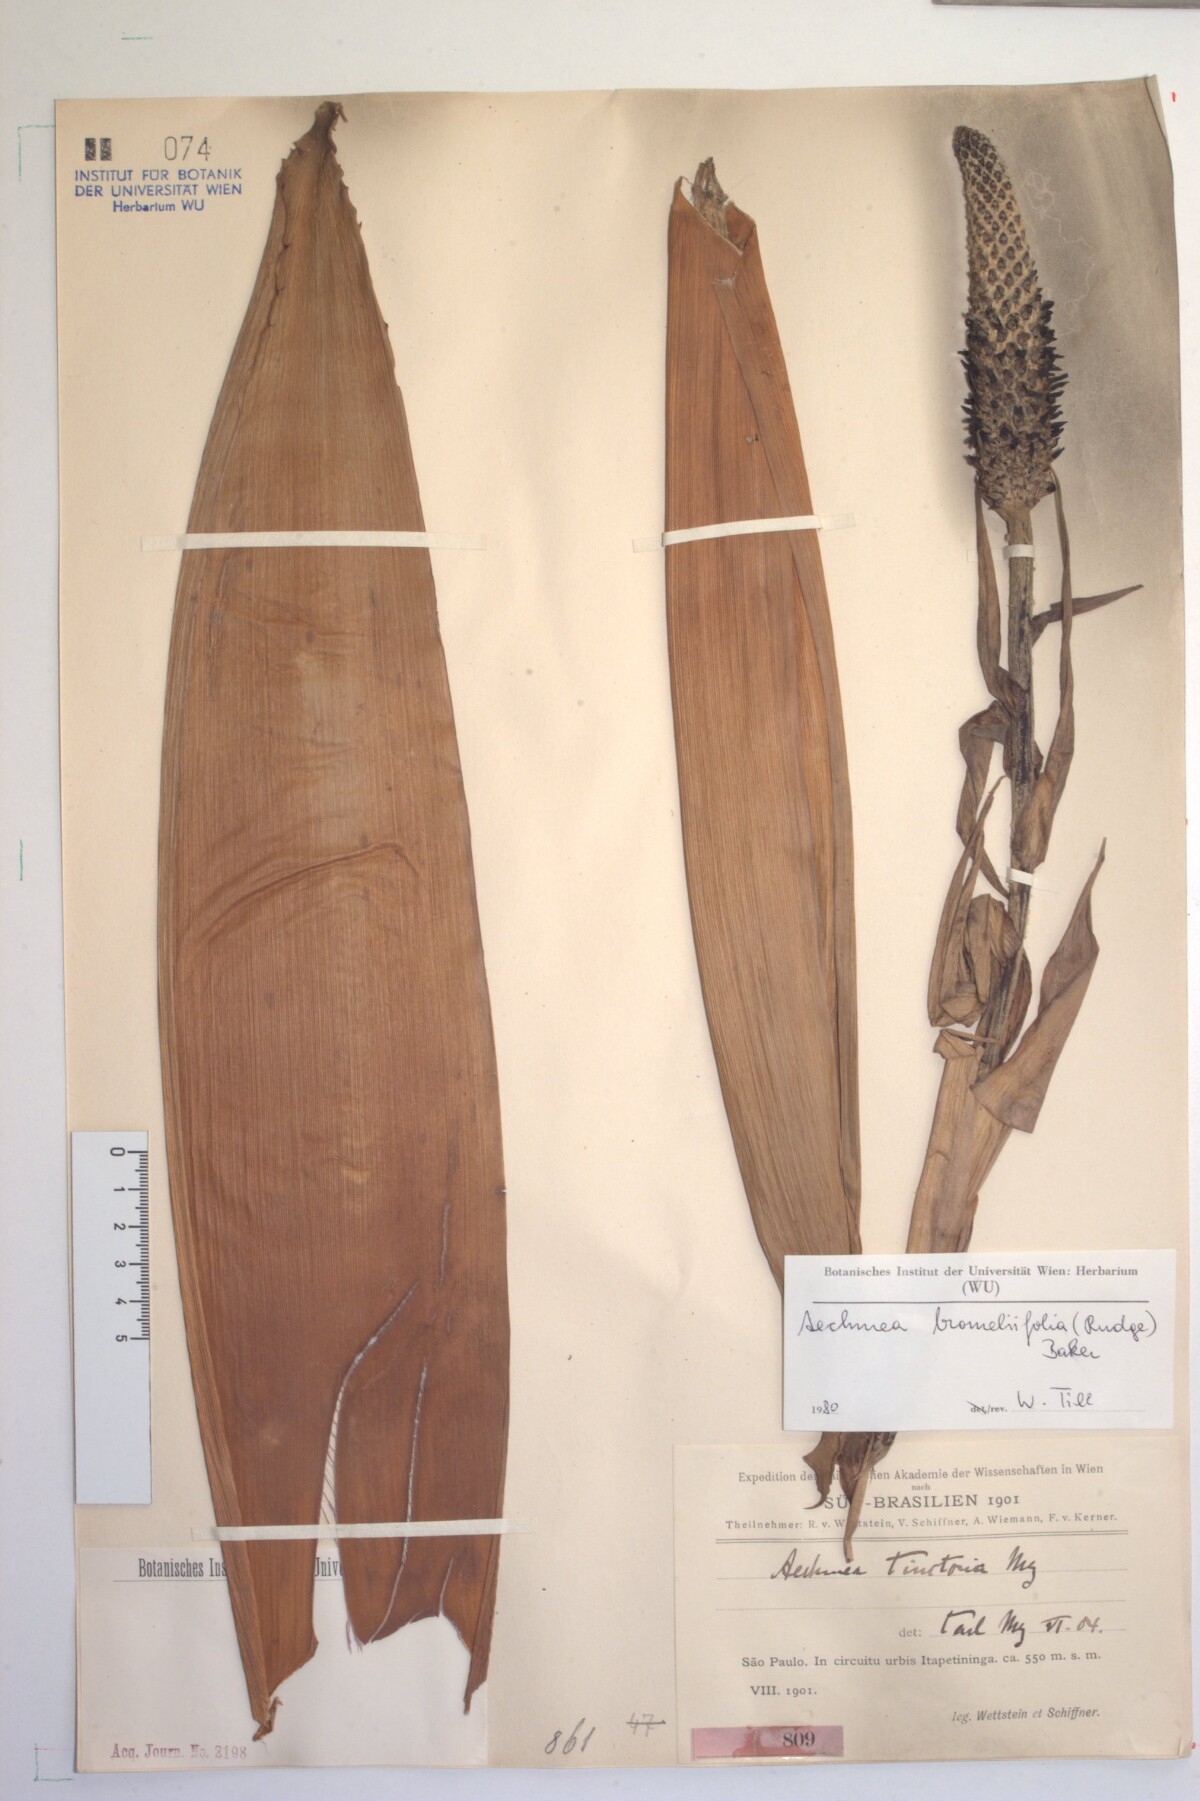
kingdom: Plantae
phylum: Tracheophyta
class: Liliopsida
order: Poales
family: Bromeliaceae
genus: Aechmea
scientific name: Aechmea bromeliifolia
